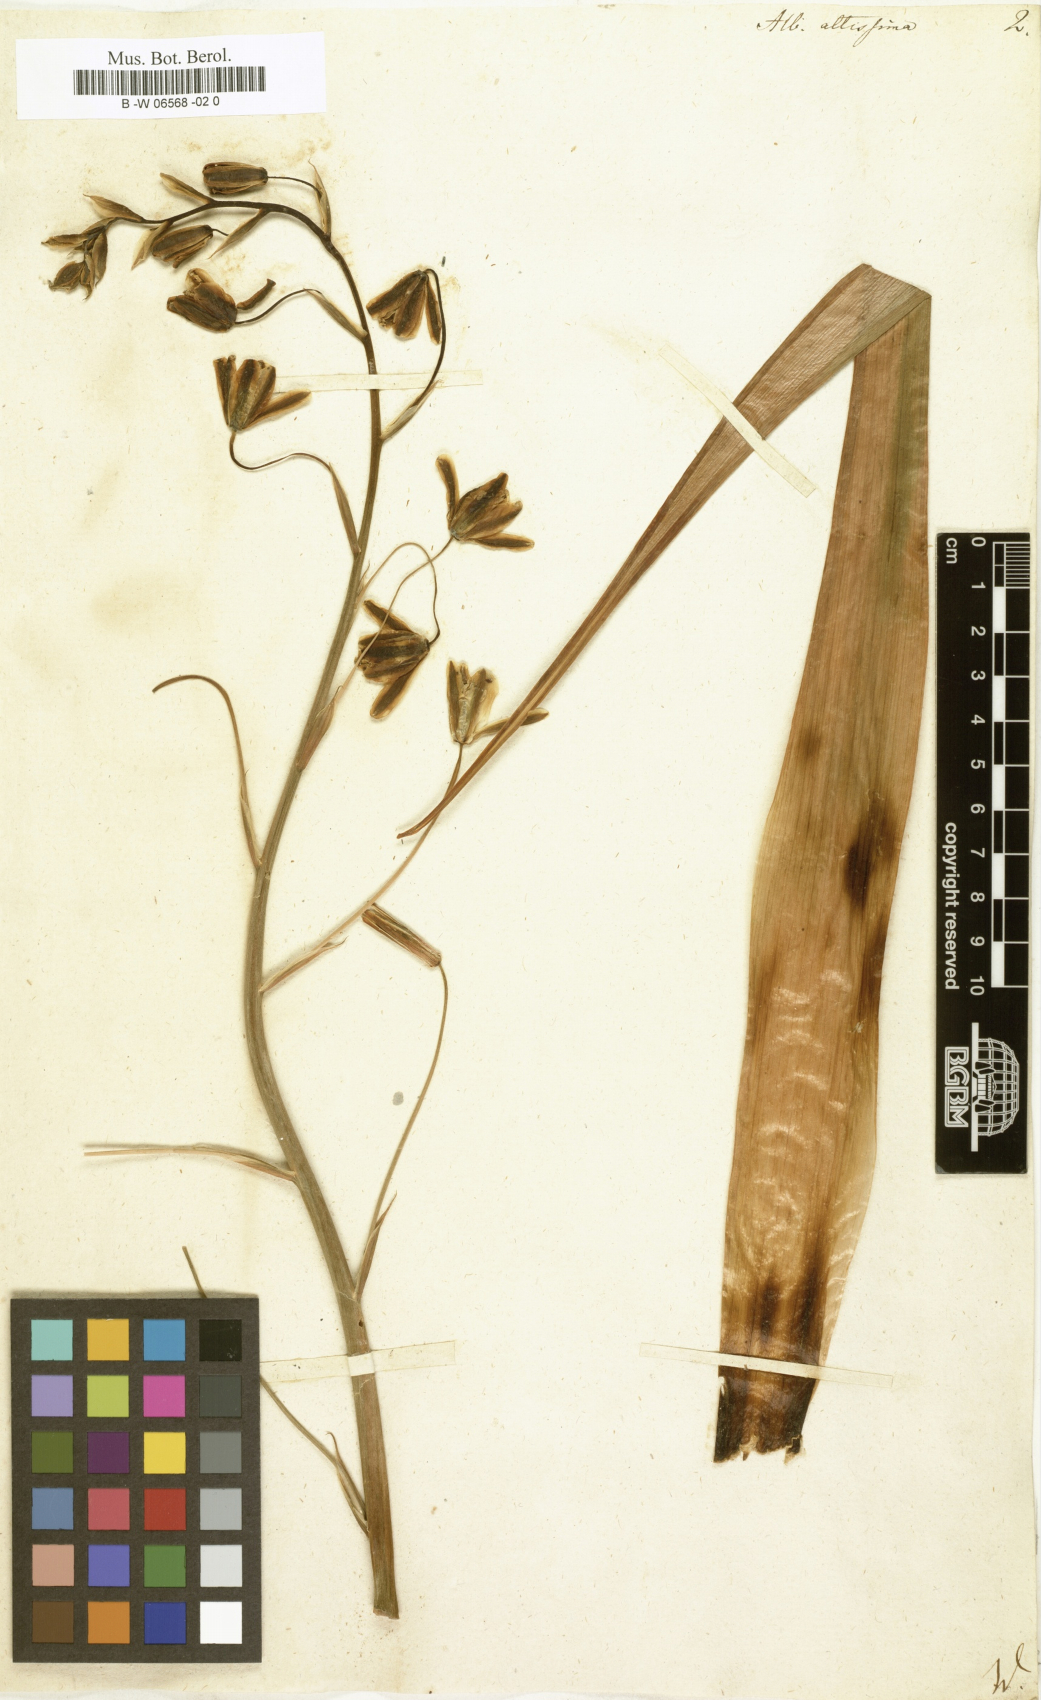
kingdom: Plantae
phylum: Tracheophyta
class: Liliopsida
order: Asparagales
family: Asparagaceae
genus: Albuca
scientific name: Albuca canadensis
